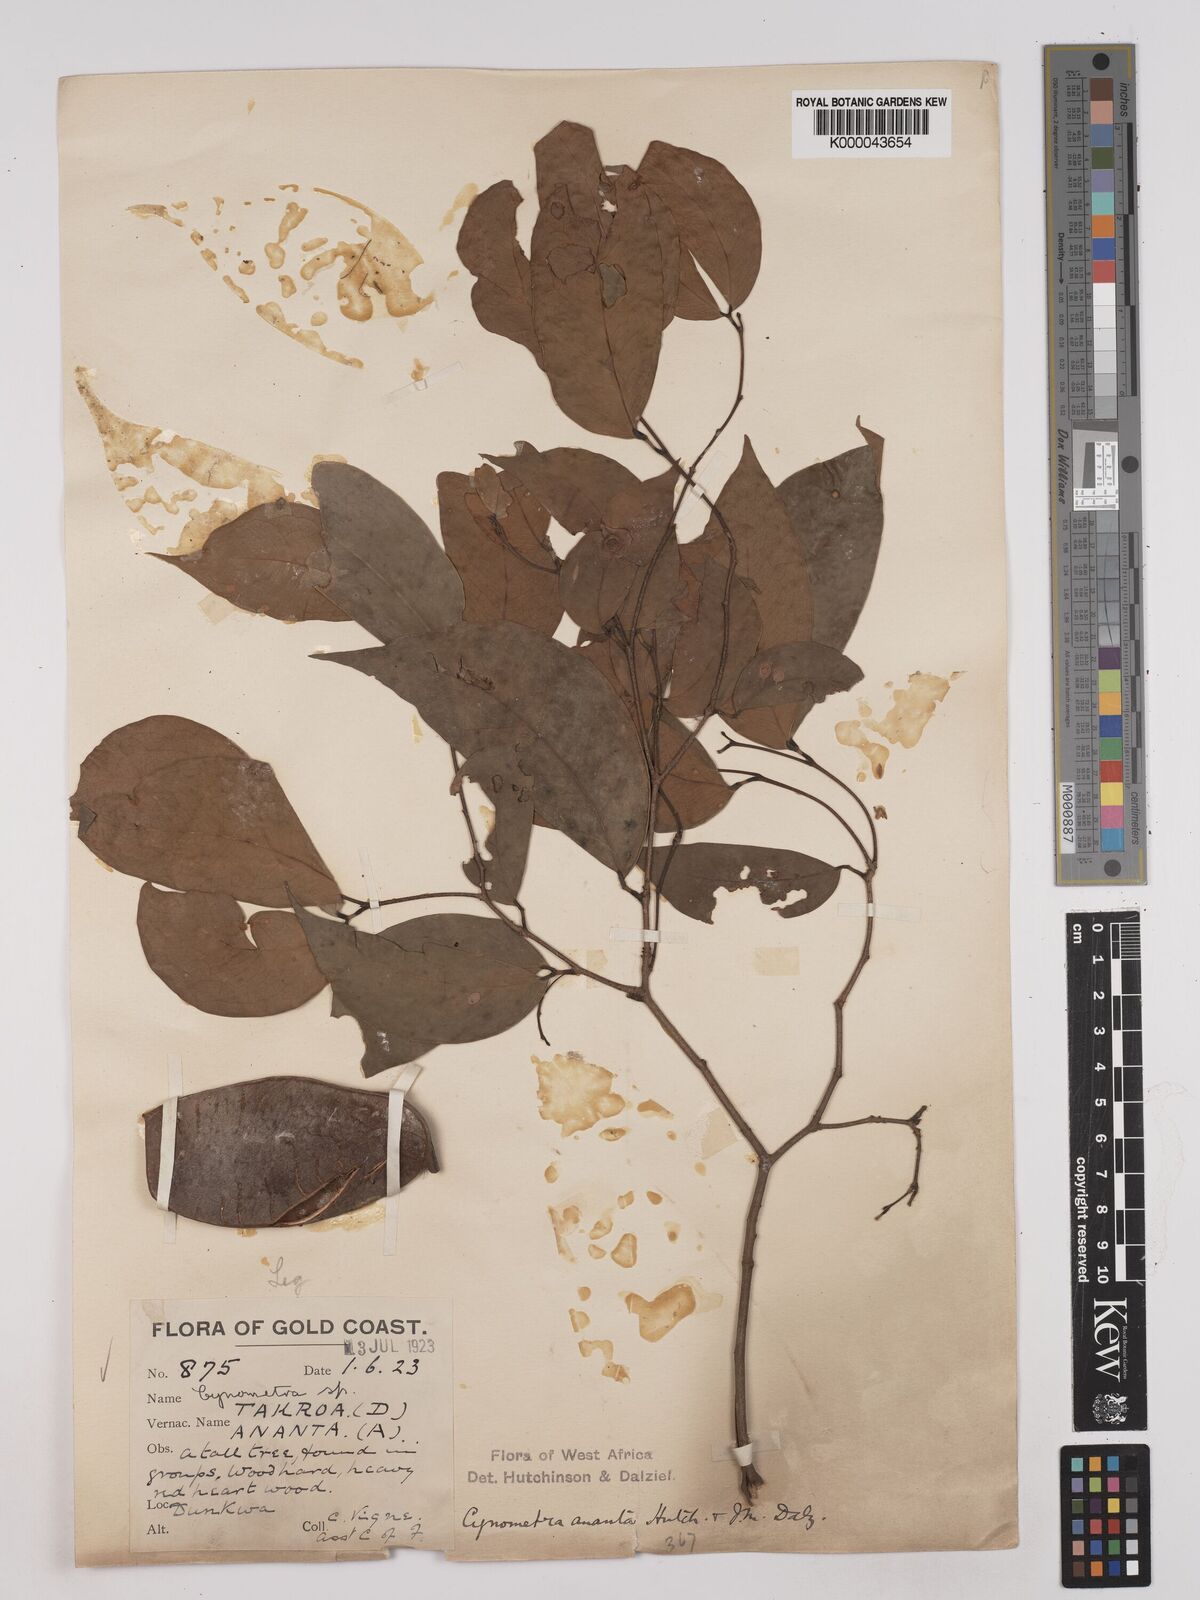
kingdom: Plantae
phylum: Tracheophyta
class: Magnoliopsida
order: Fabales
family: Fabaceae
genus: Cynometra
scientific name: Cynometra ananta
